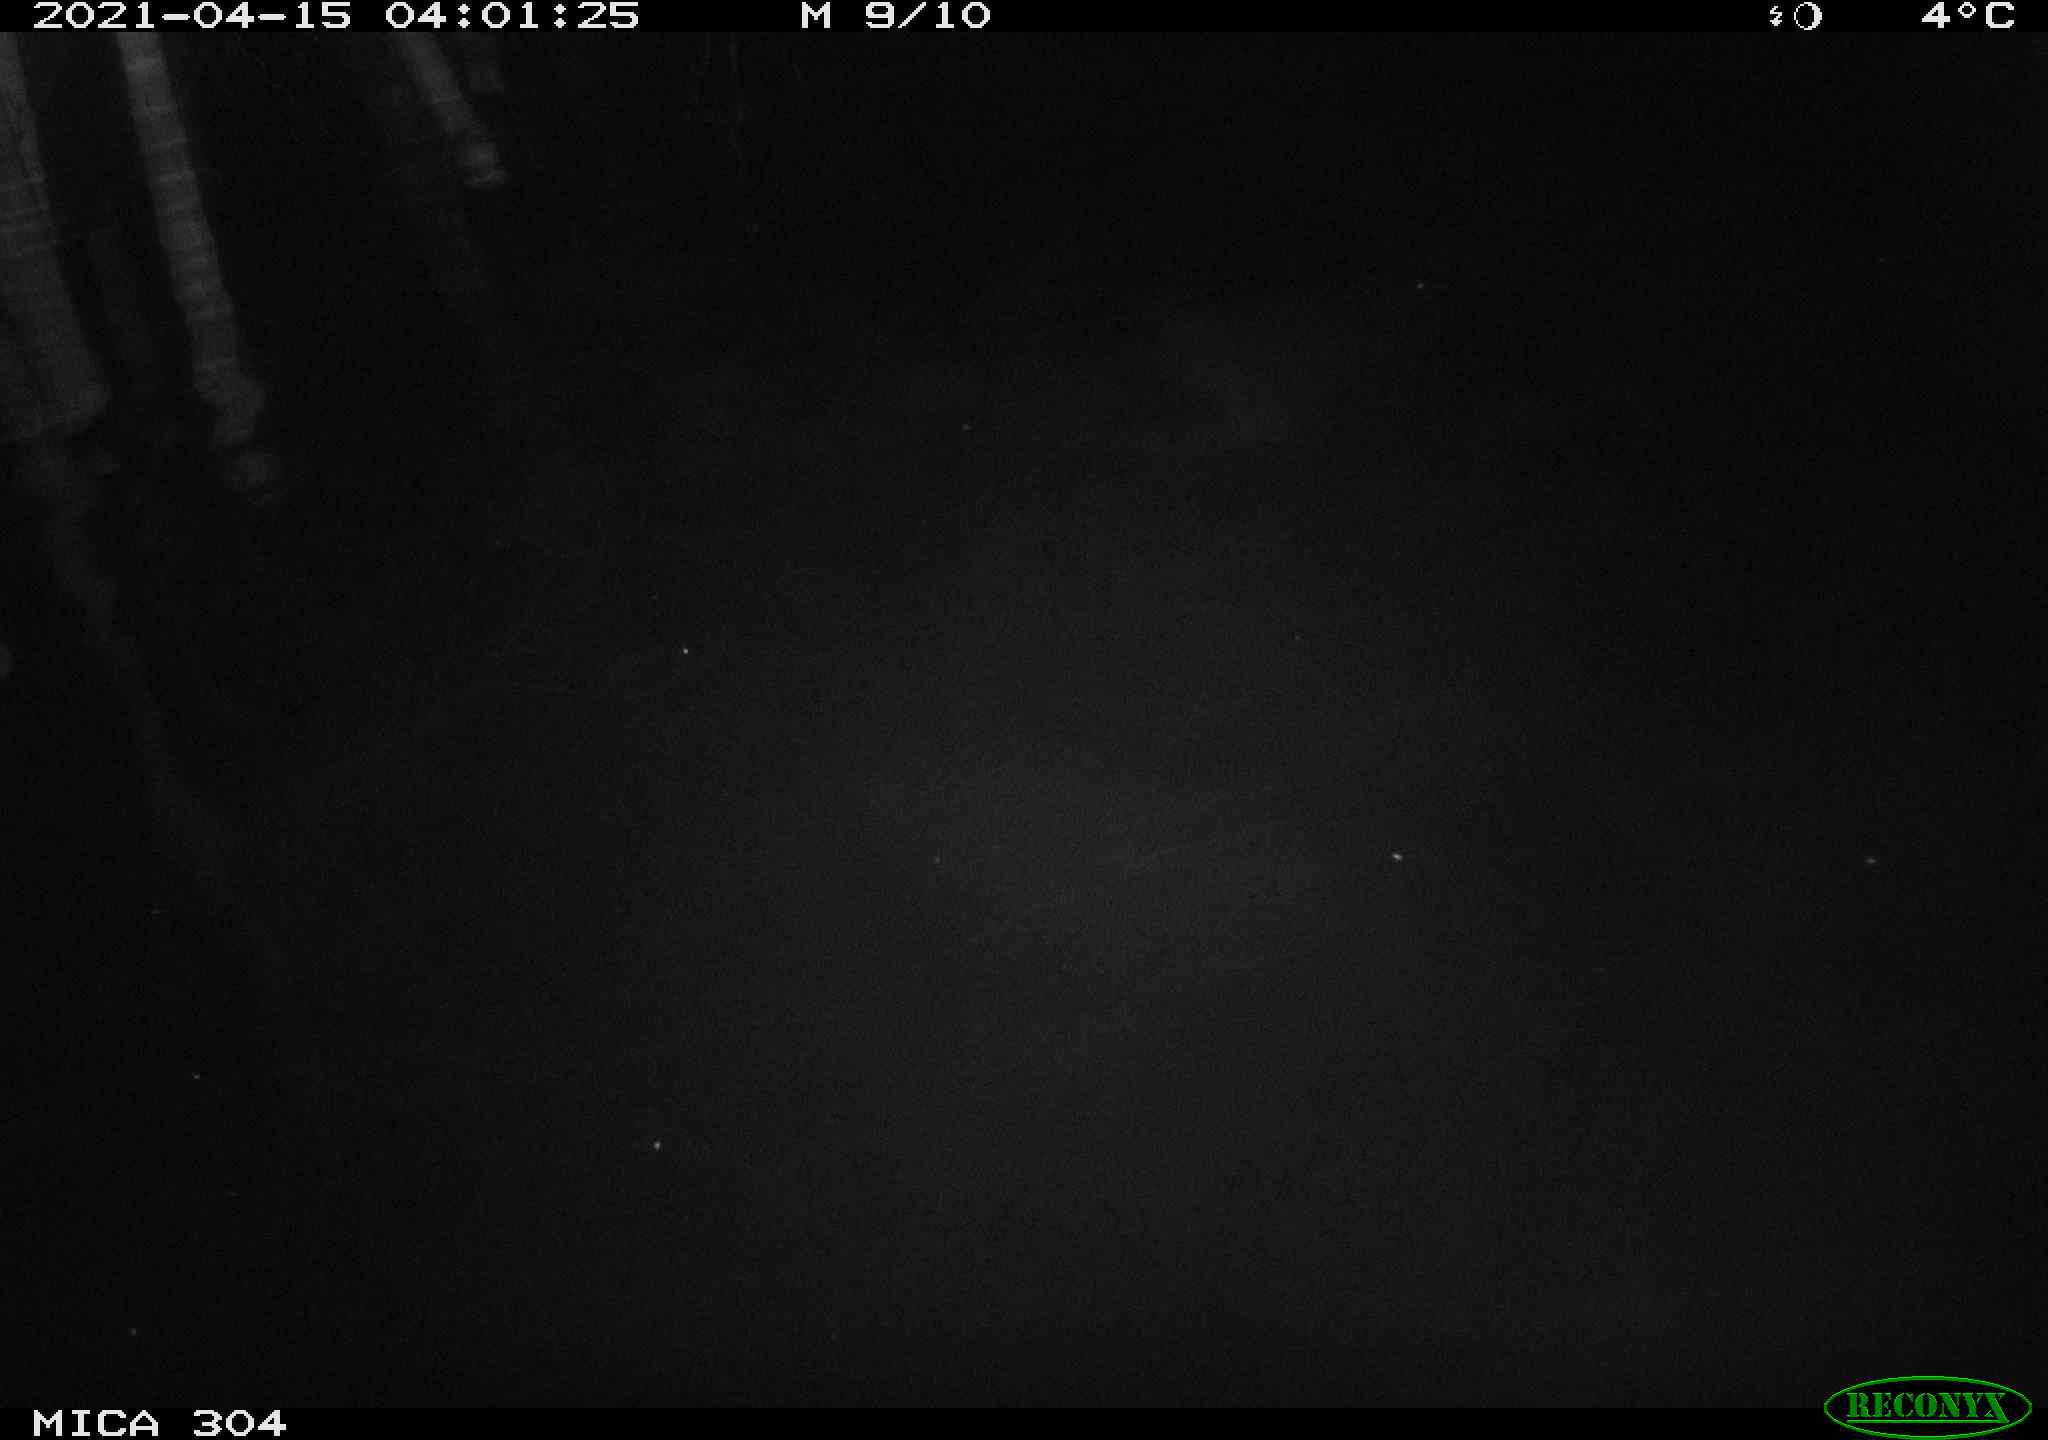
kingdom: Animalia
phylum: Chordata
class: Aves
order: Anseriformes
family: Anatidae
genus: Anas
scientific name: Anas
